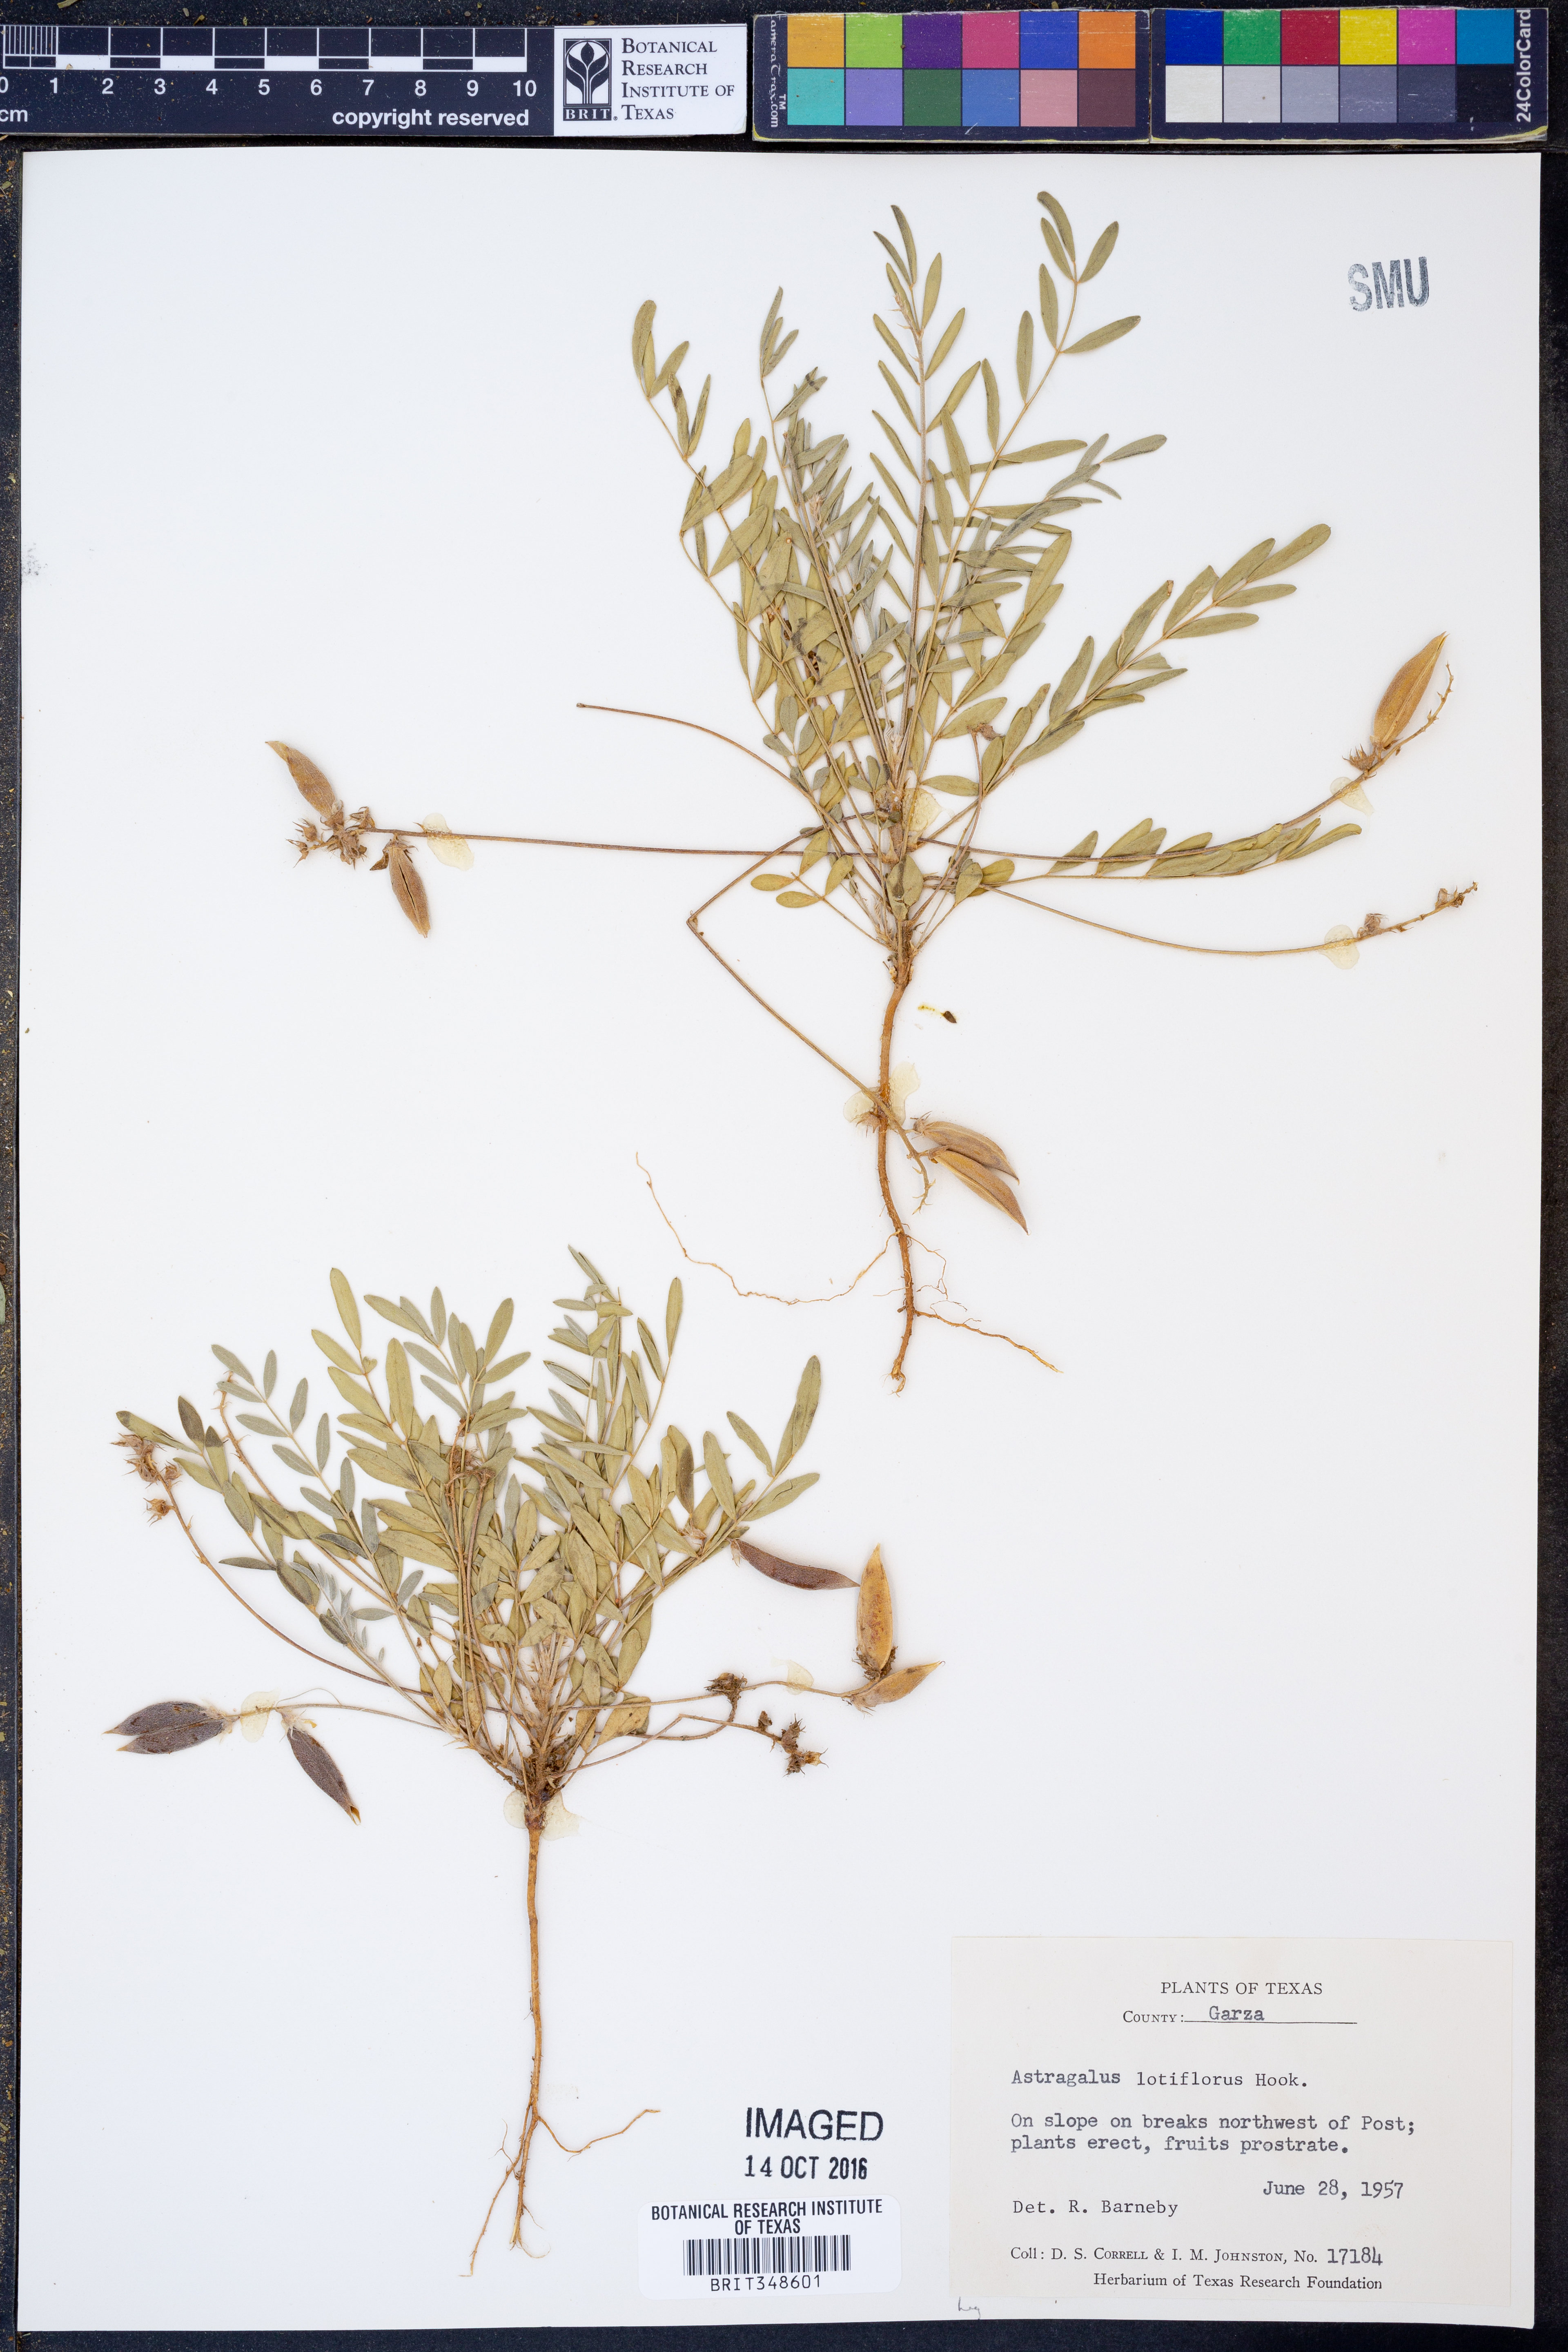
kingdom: Plantae
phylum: Tracheophyta
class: Magnoliopsida
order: Fabales
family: Fabaceae
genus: Astragalus
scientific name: Astragalus lotiflorus
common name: Lotus milk-vetch
